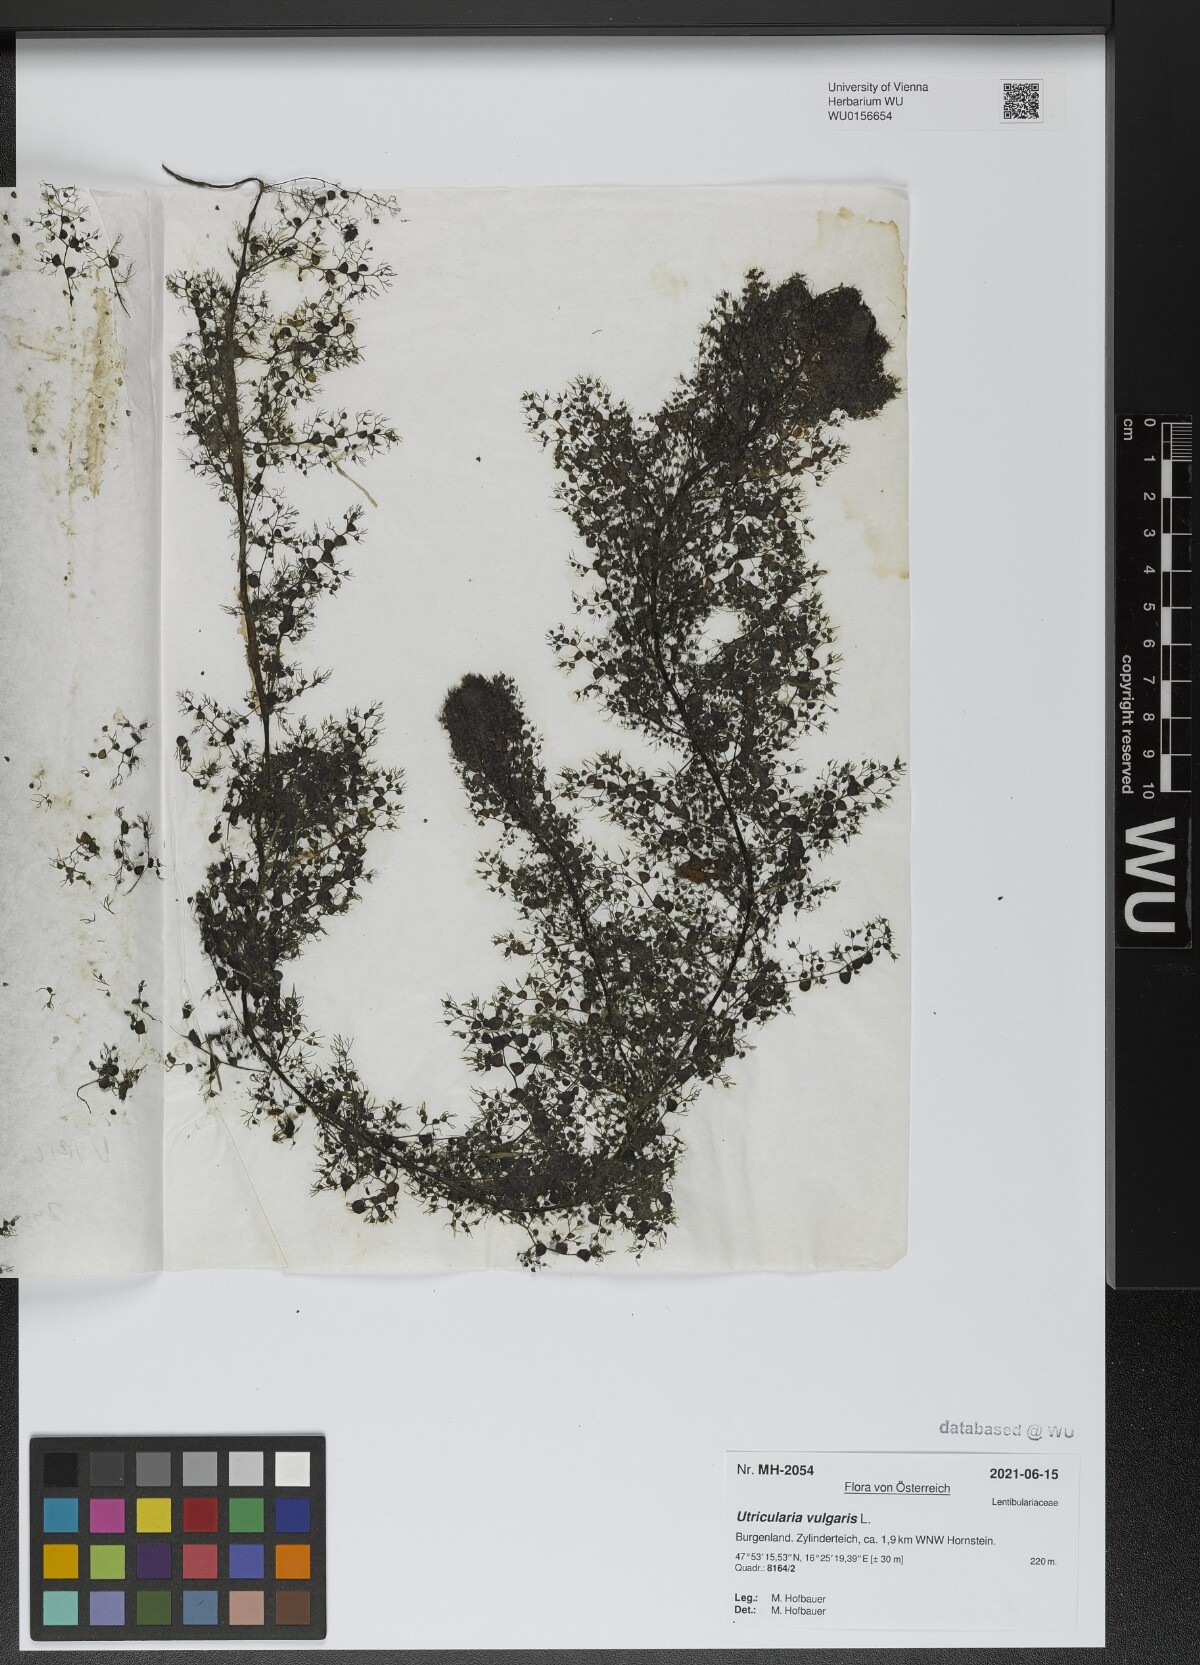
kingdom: Plantae
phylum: Tracheophyta
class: Magnoliopsida
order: Lamiales
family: Lentibulariaceae
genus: Utricularia
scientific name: Utricularia vulgaris
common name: Greater bladderwort
